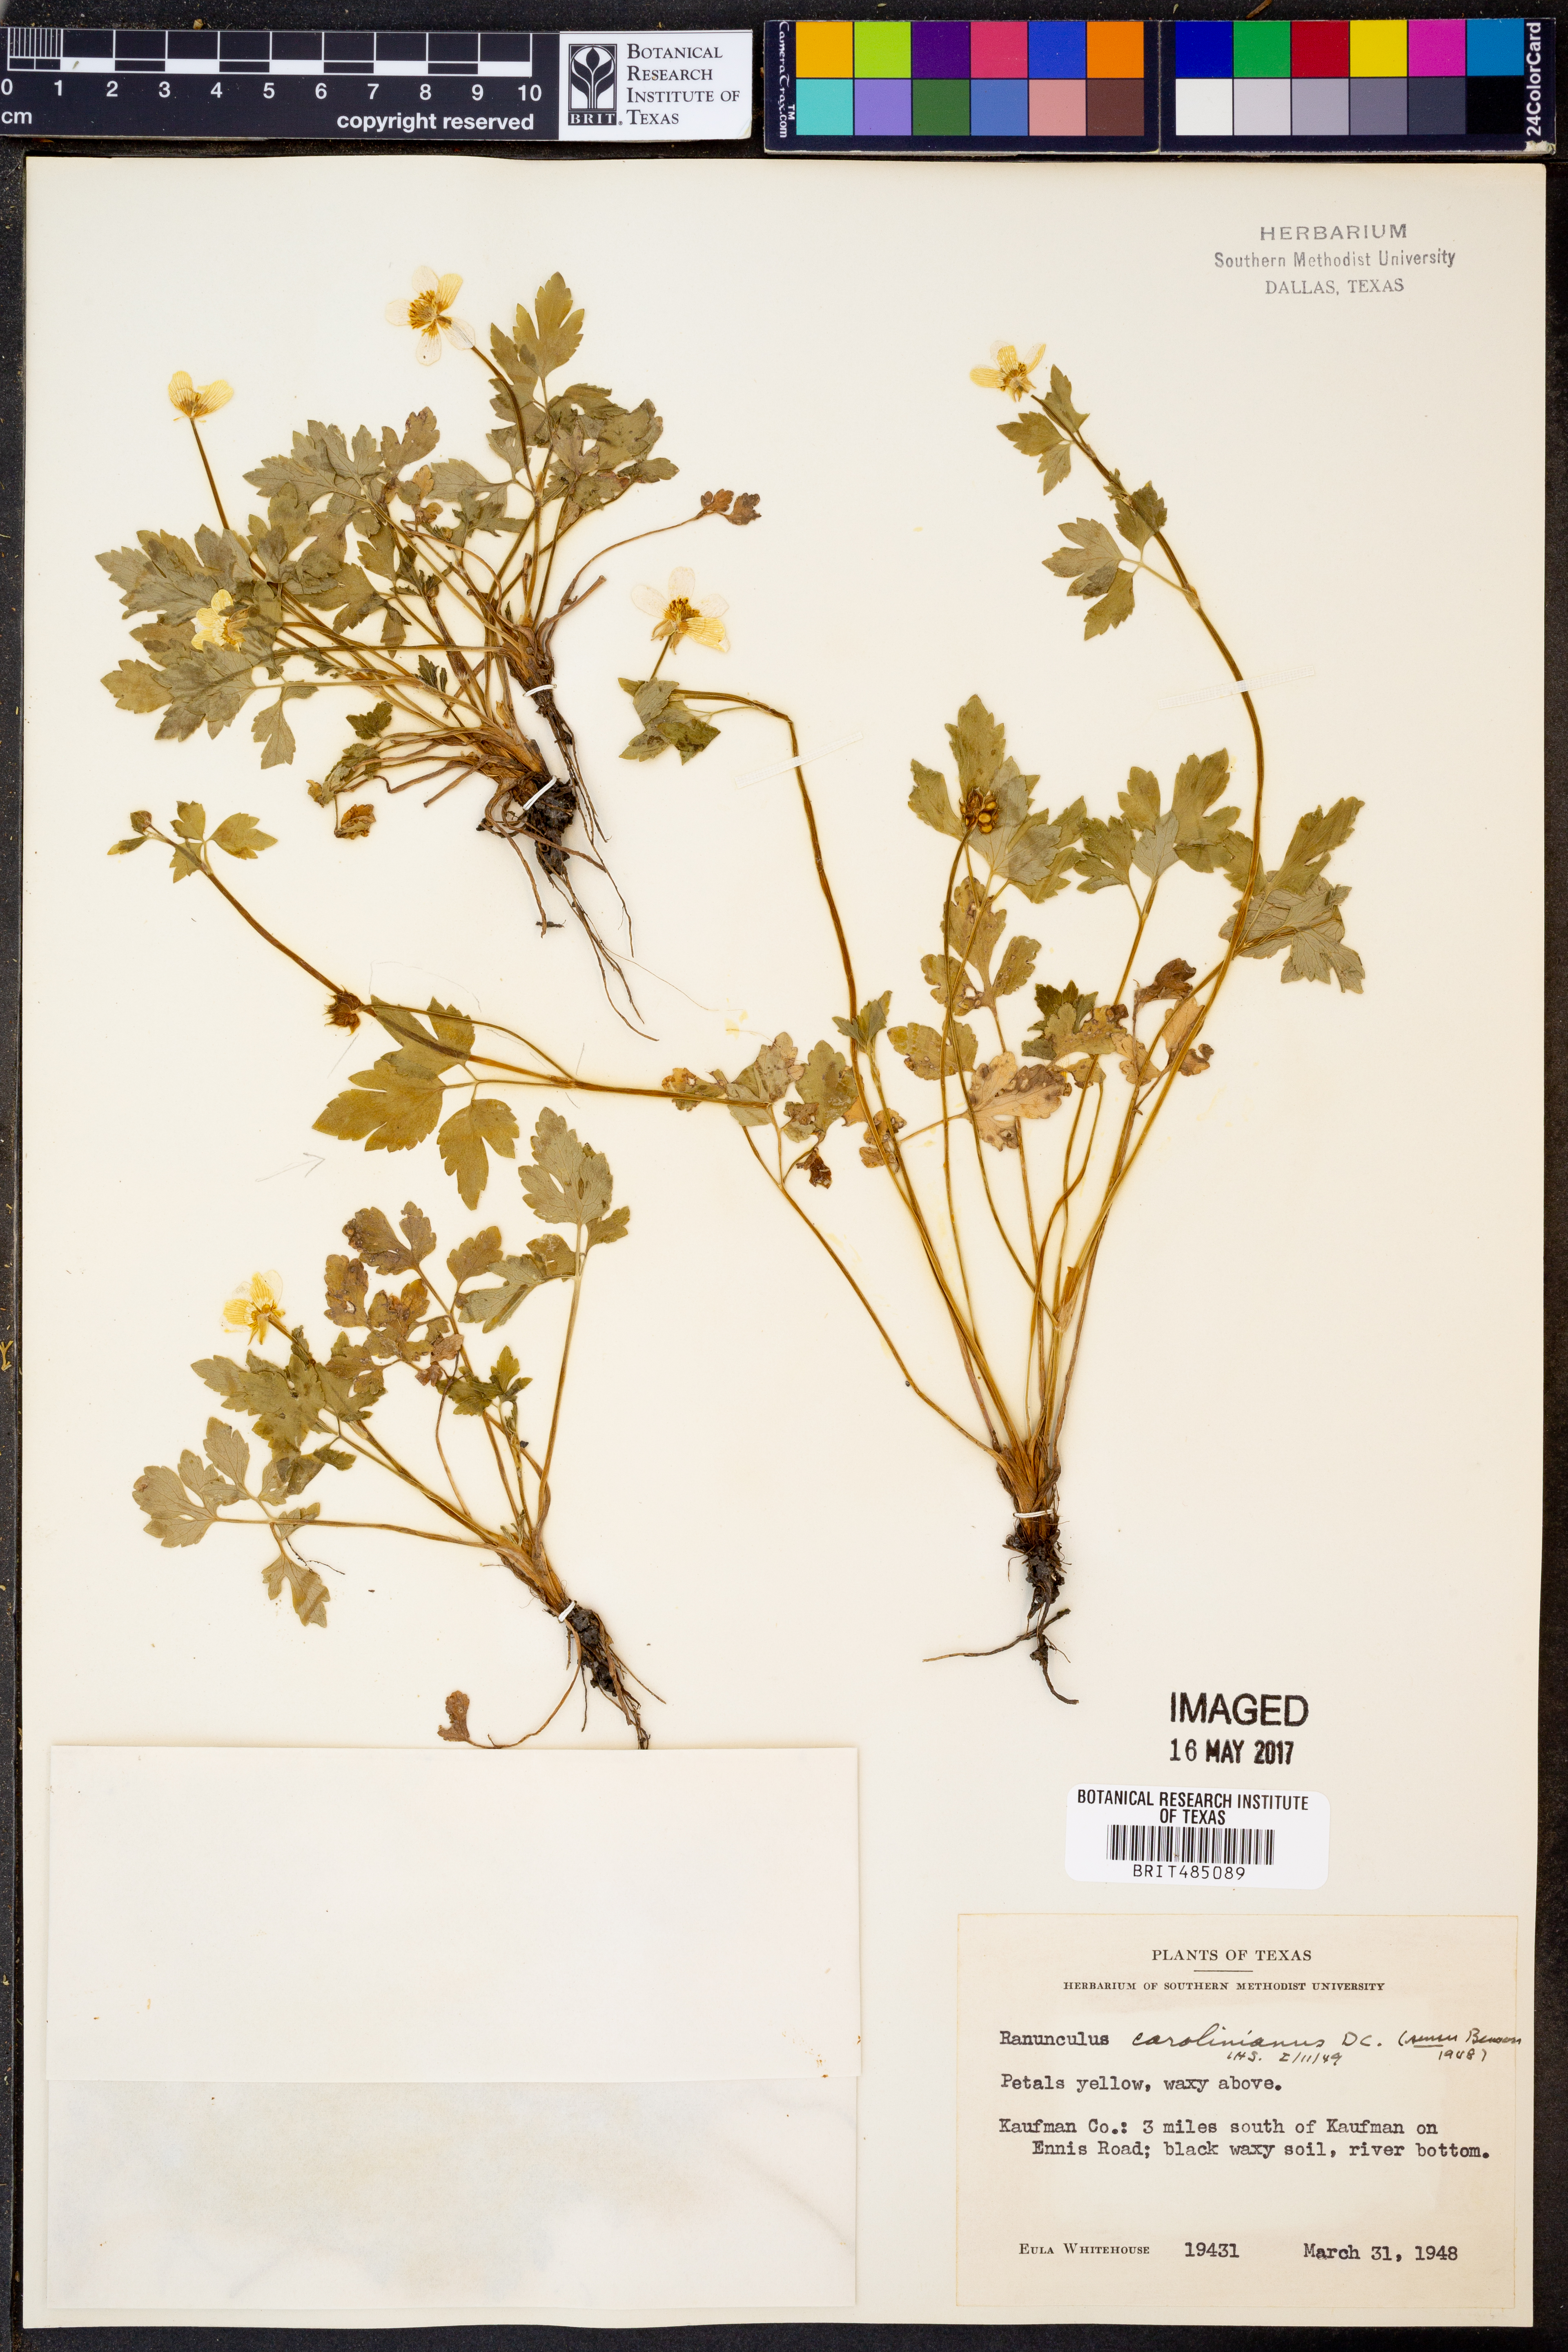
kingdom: Plantae
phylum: Tracheophyta
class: Magnoliopsida
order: Ranunculales
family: Ranunculaceae
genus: Ranunculus
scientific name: Ranunculus hispidus
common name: Bristly buttercup
